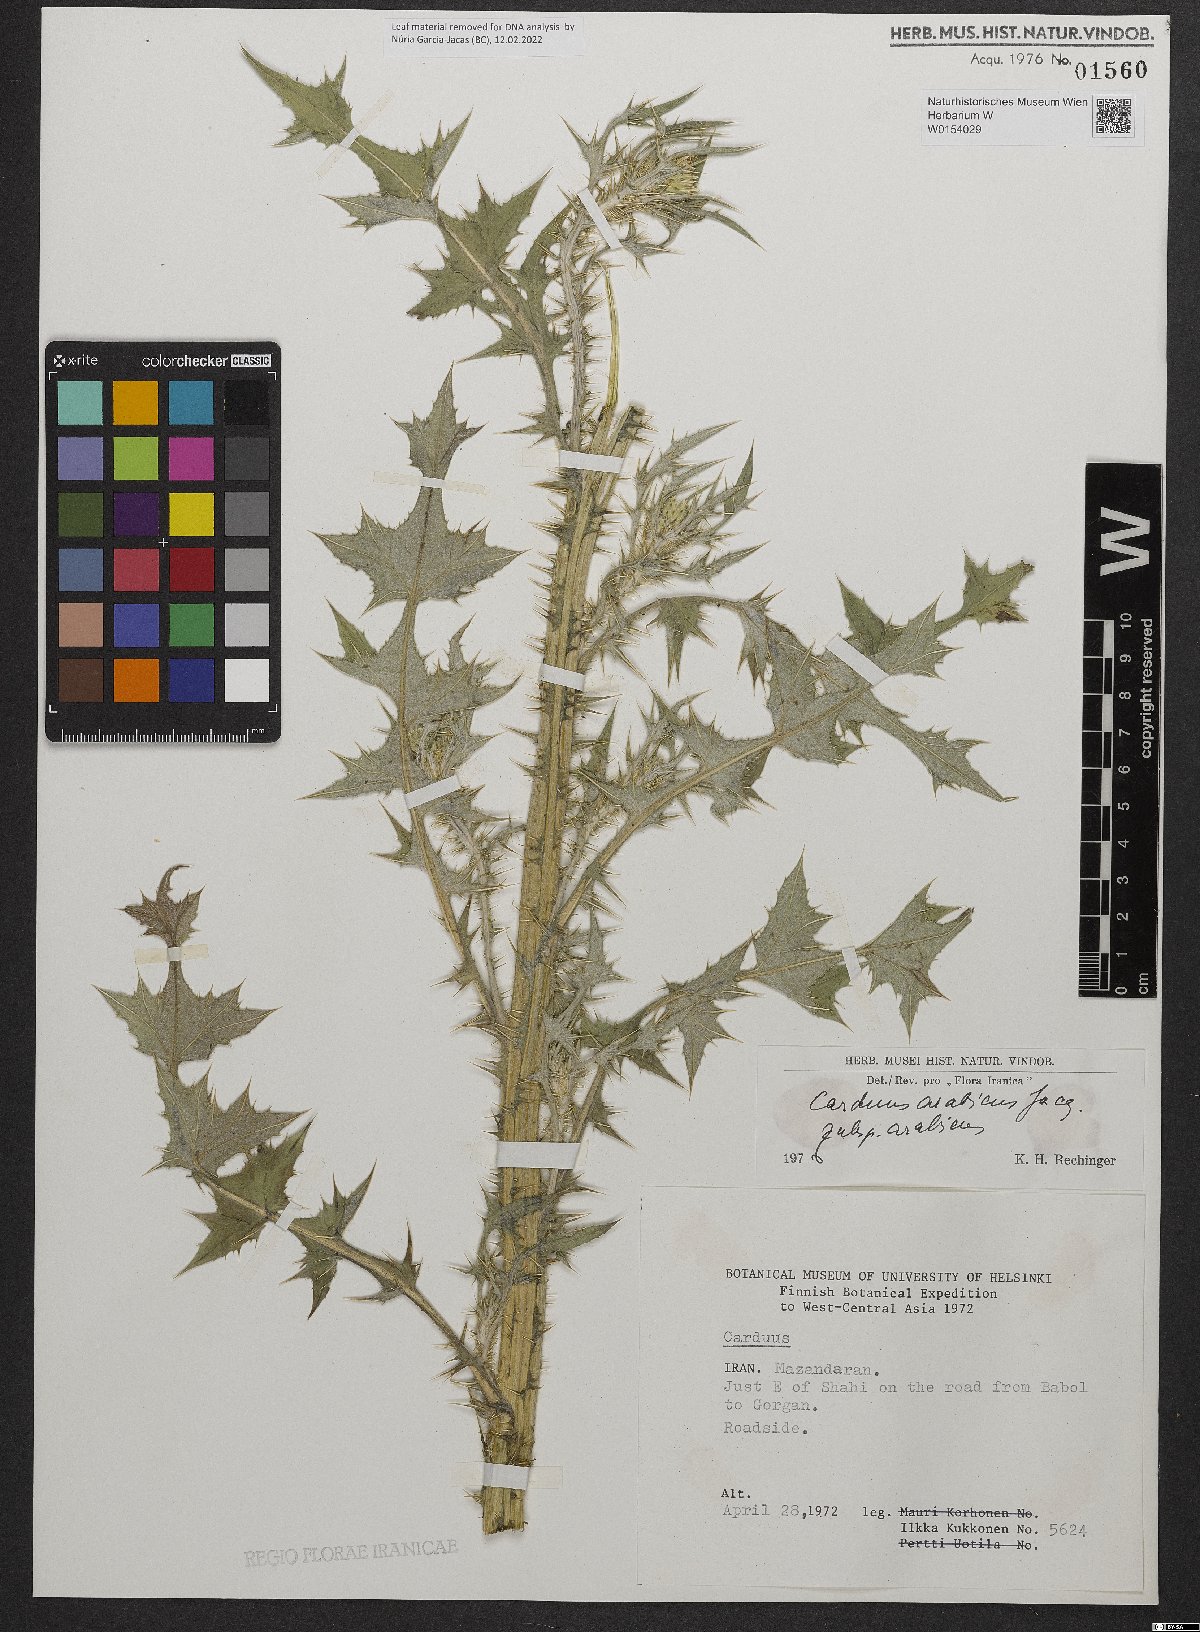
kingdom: Plantae
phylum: Tracheophyta
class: Magnoliopsida
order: Asterales
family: Asteraceae
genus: Carduus
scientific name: Carduus arabicus
